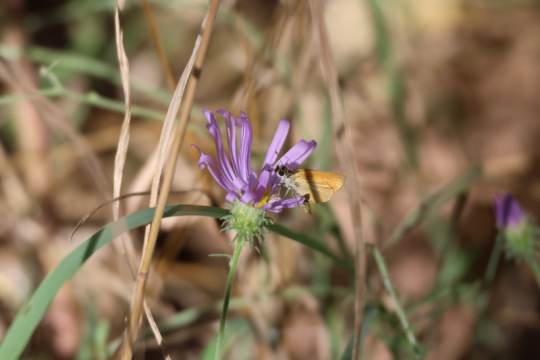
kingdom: Animalia
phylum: Arthropoda
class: Insecta
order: Lepidoptera
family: Hesperiidae
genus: Ancyloxypha
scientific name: Ancyloxypha numitor
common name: Least Skipper
